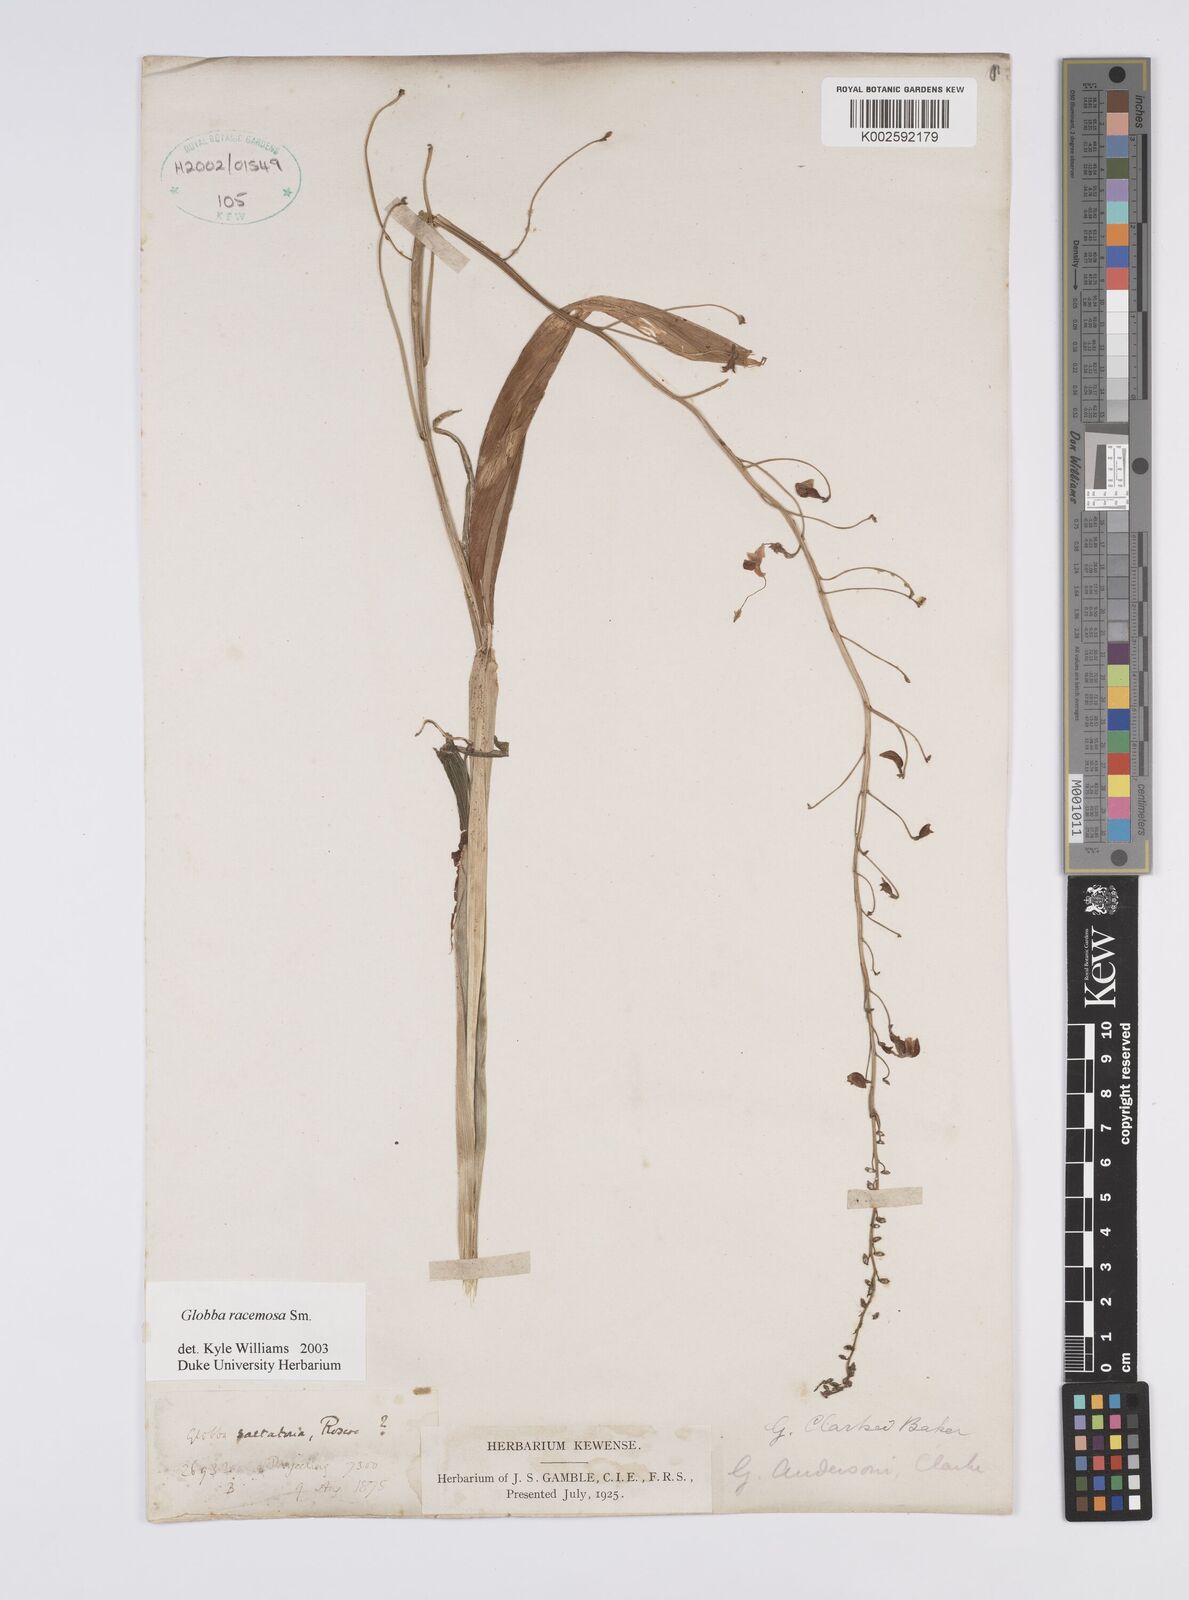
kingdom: Plantae
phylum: Tracheophyta
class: Liliopsida
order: Zingiberales
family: Zingiberaceae
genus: Globba
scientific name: Globba racemosa
